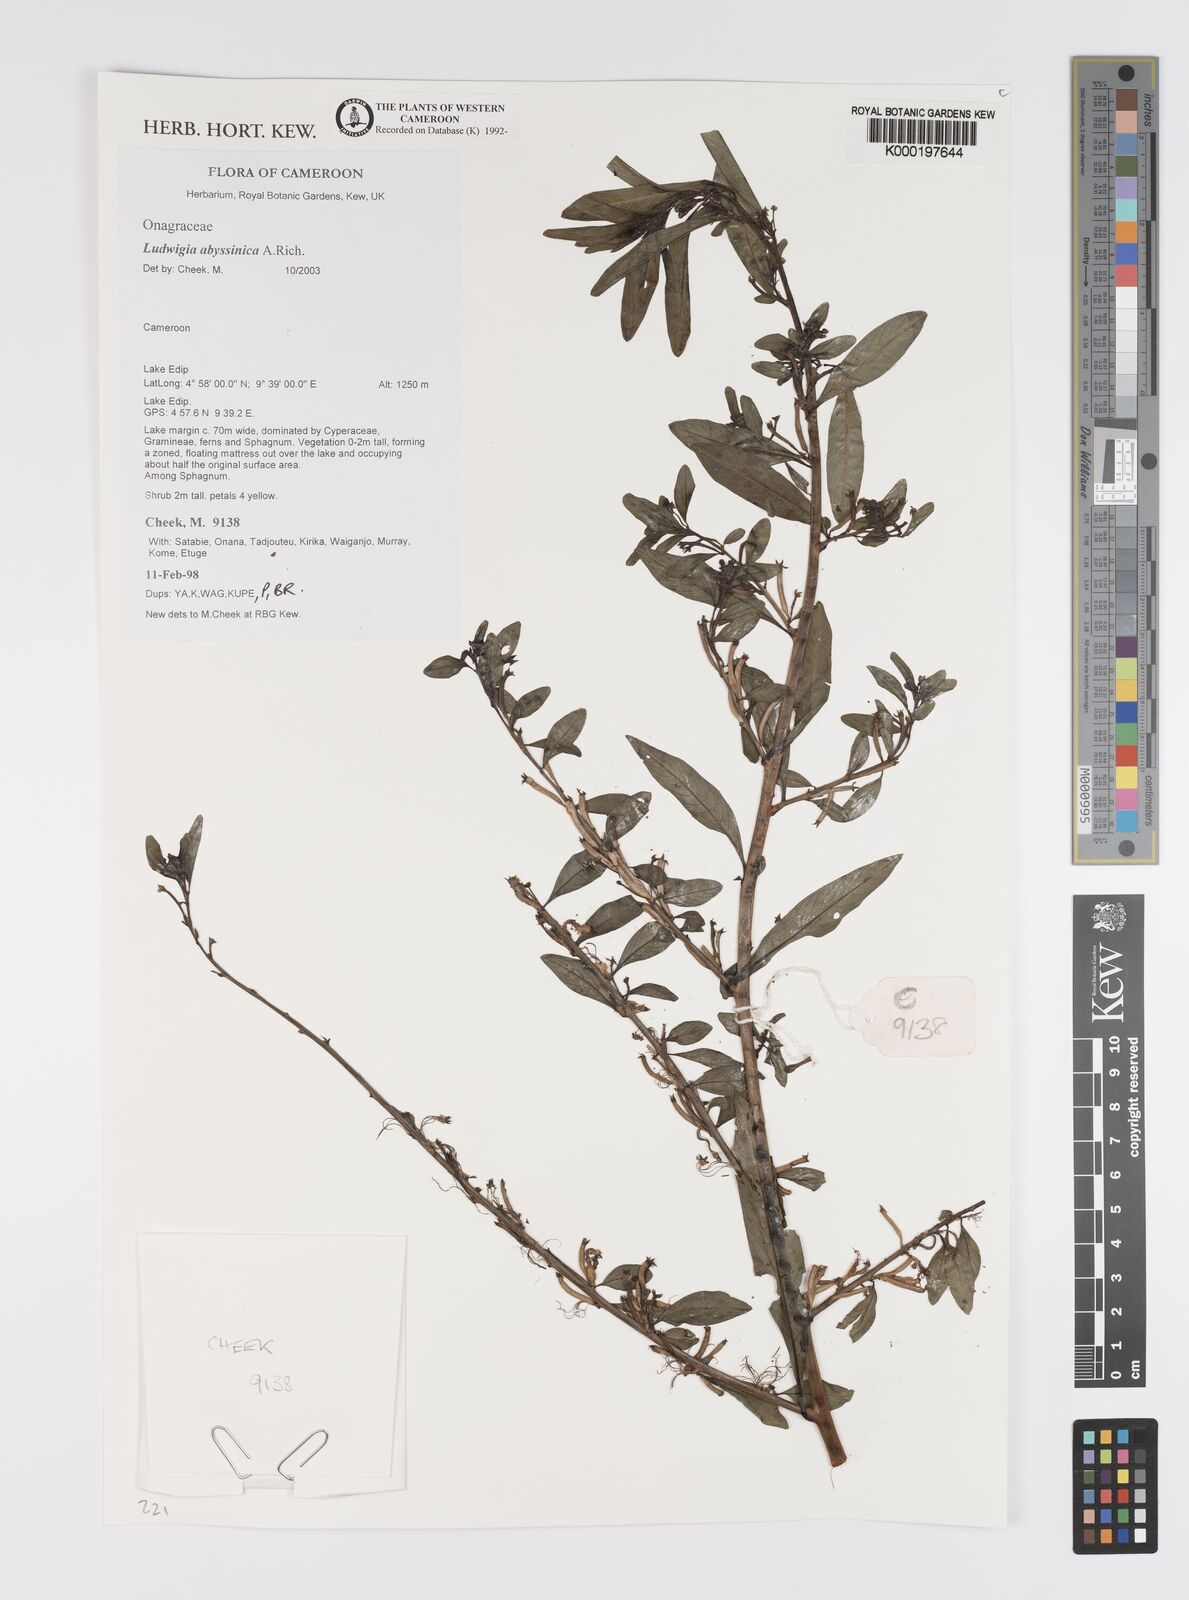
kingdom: Plantae
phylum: Tracheophyta
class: Magnoliopsida
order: Myrtales
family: Onagraceae
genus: Ludwigia
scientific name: Ludwigia abyssinica
